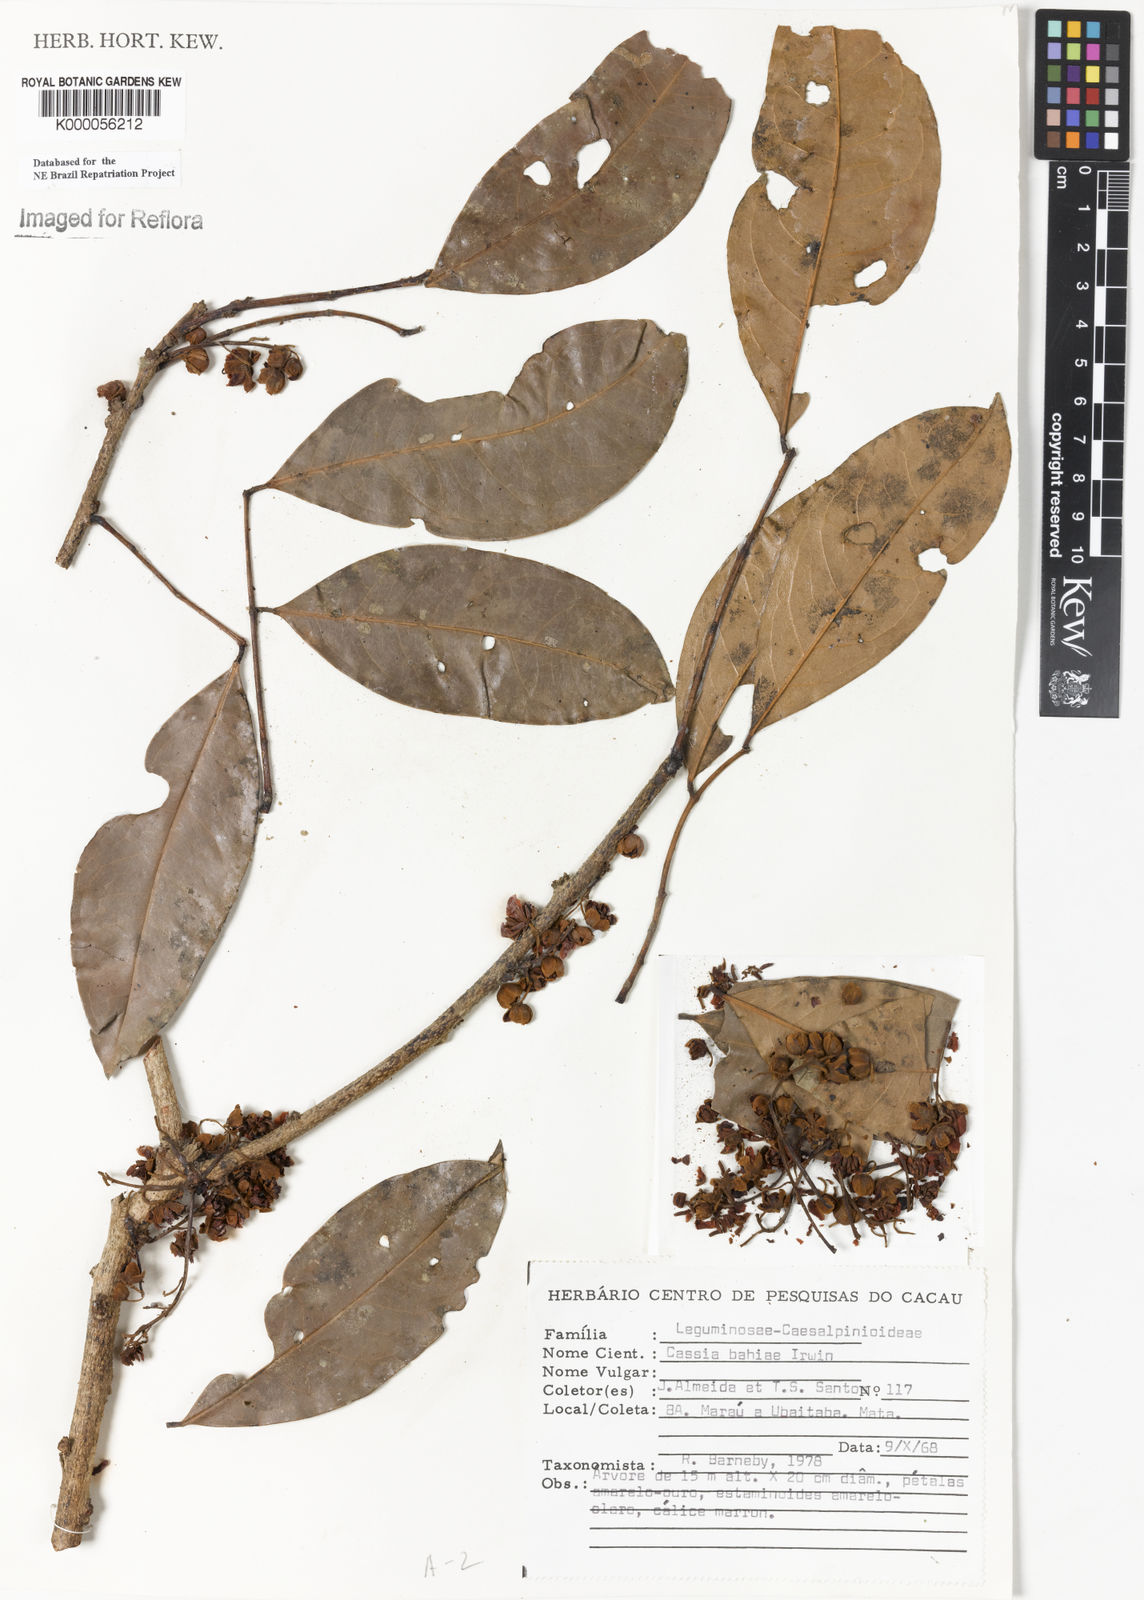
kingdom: Plantae
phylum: Tracheophyta
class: Magnoliopsida
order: Fabales
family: Fabaceae
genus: Chamaecrista
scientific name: Chamaecrista bahiae
